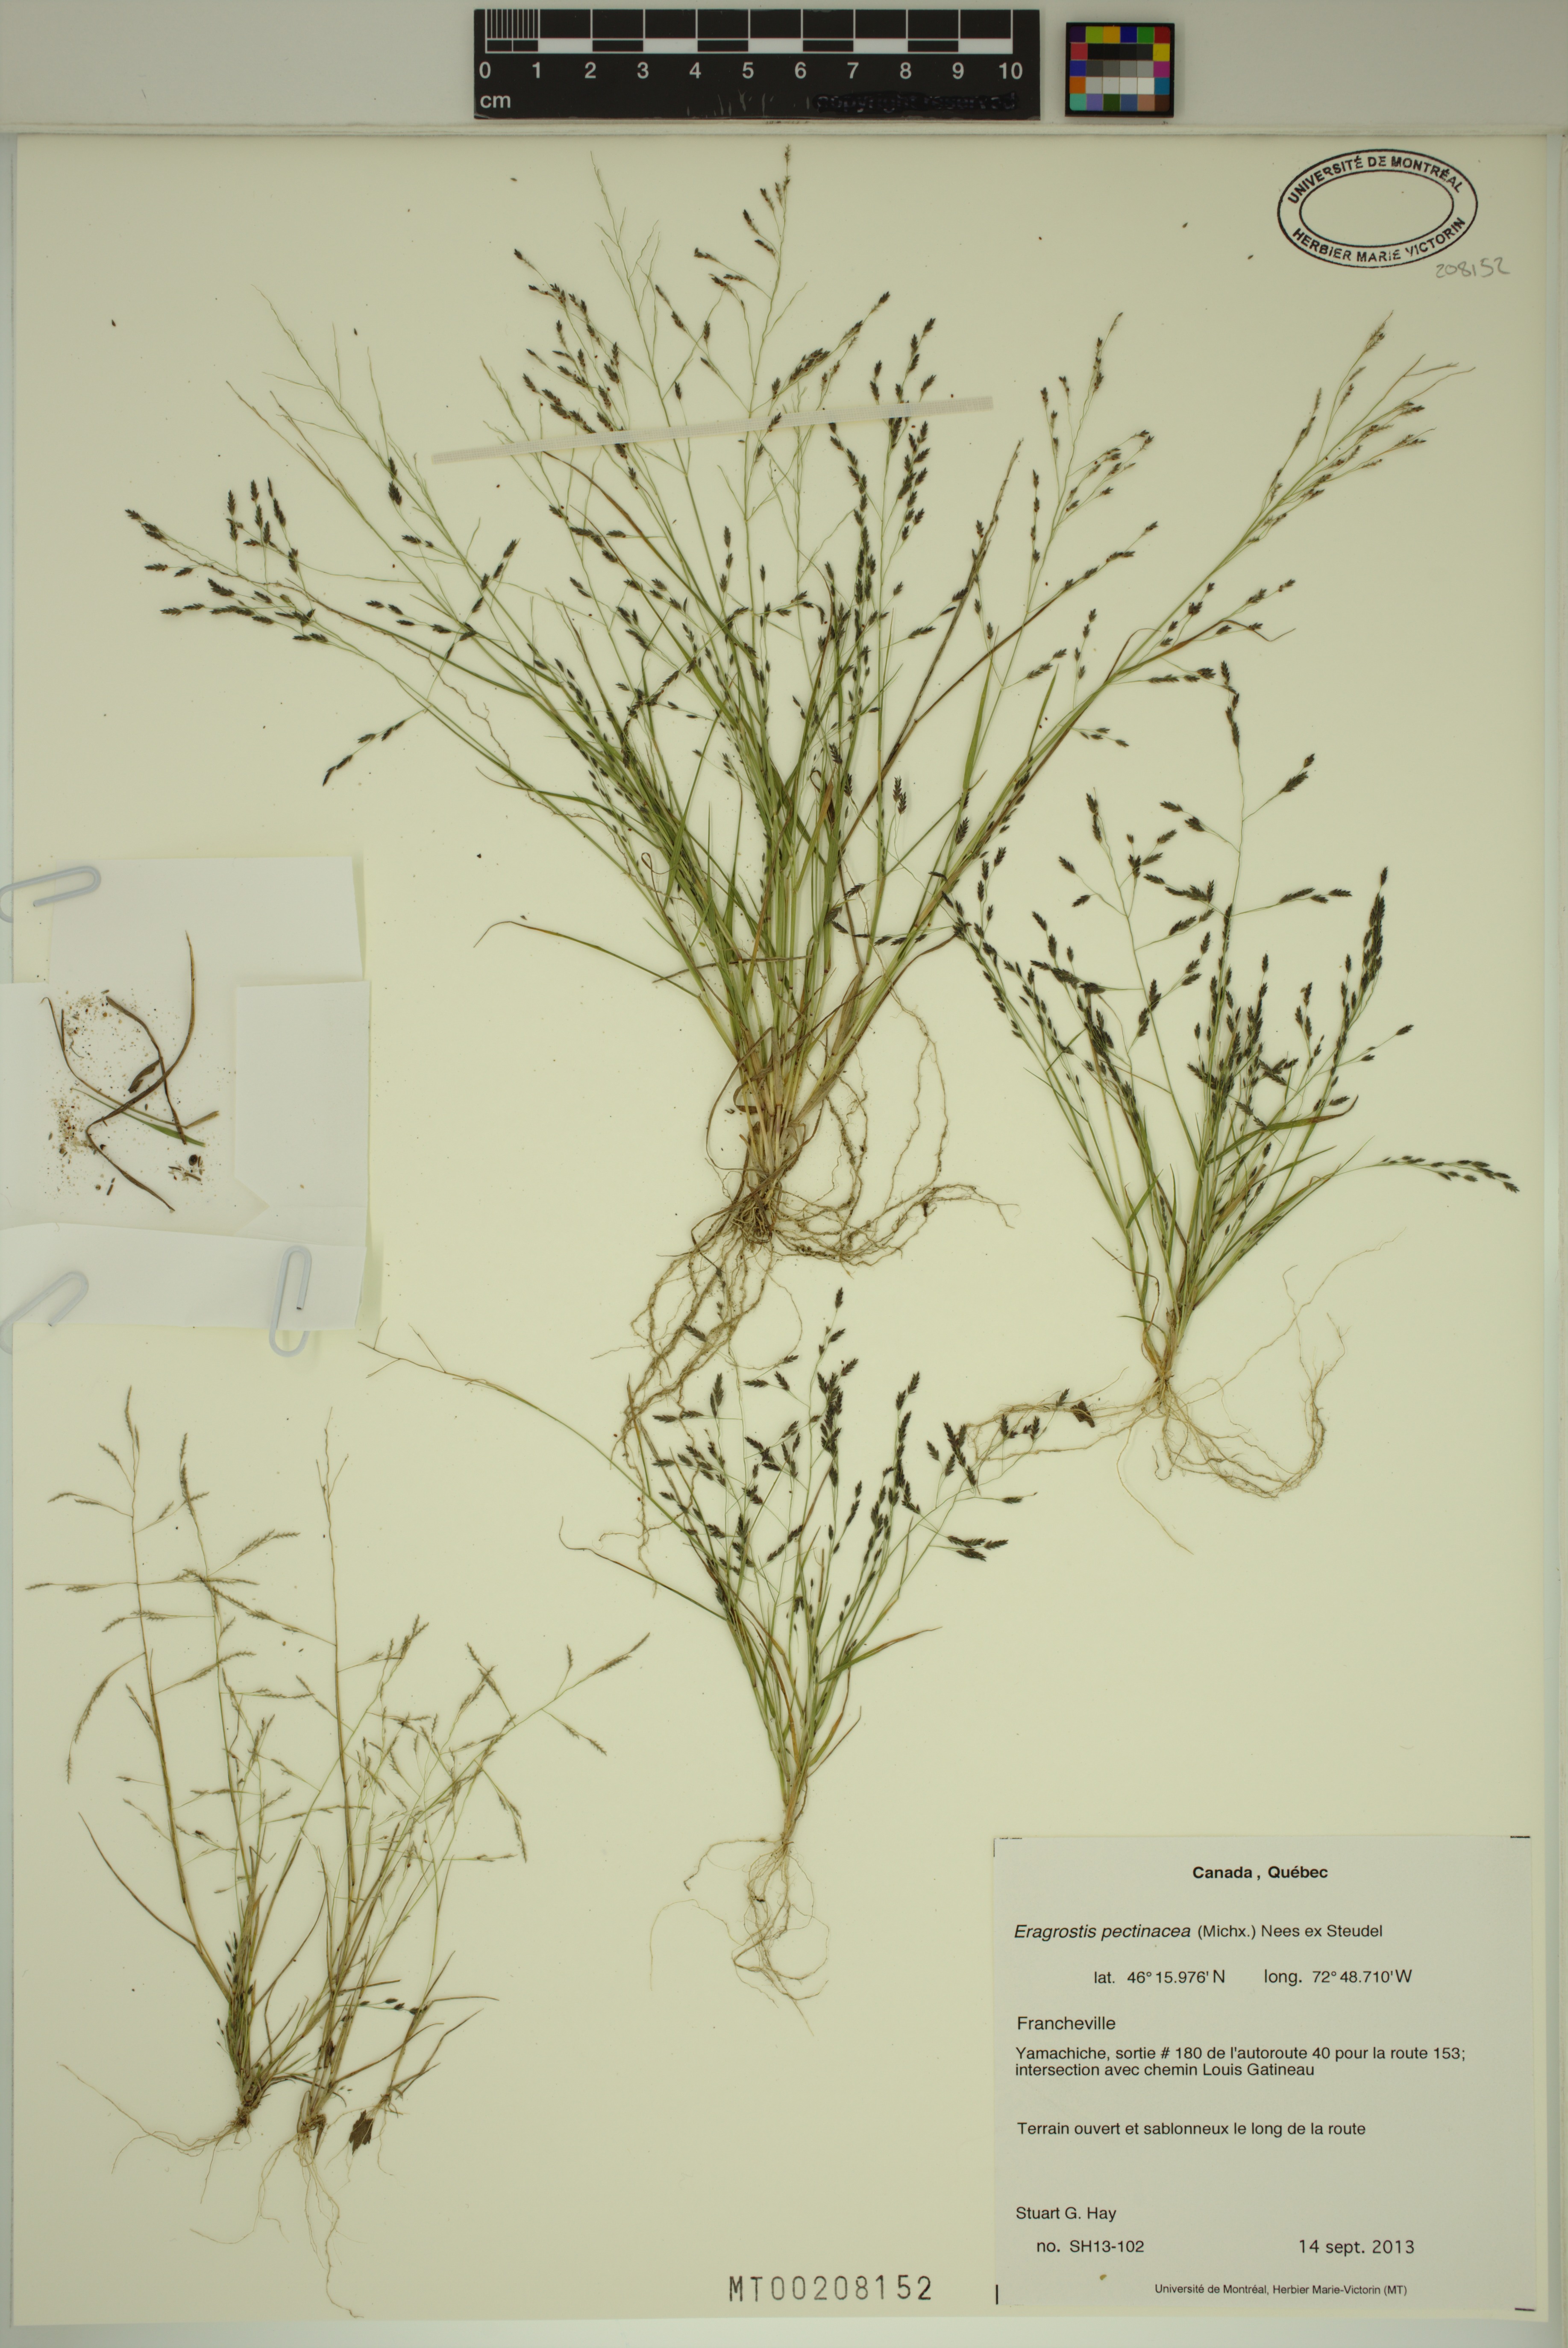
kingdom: Plantae
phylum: Tracheophyta
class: Liliopsida
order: Poales
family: Poaceae
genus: Eragrostis
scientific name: Eragrostis pectinacea
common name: Tufted lovegrass
